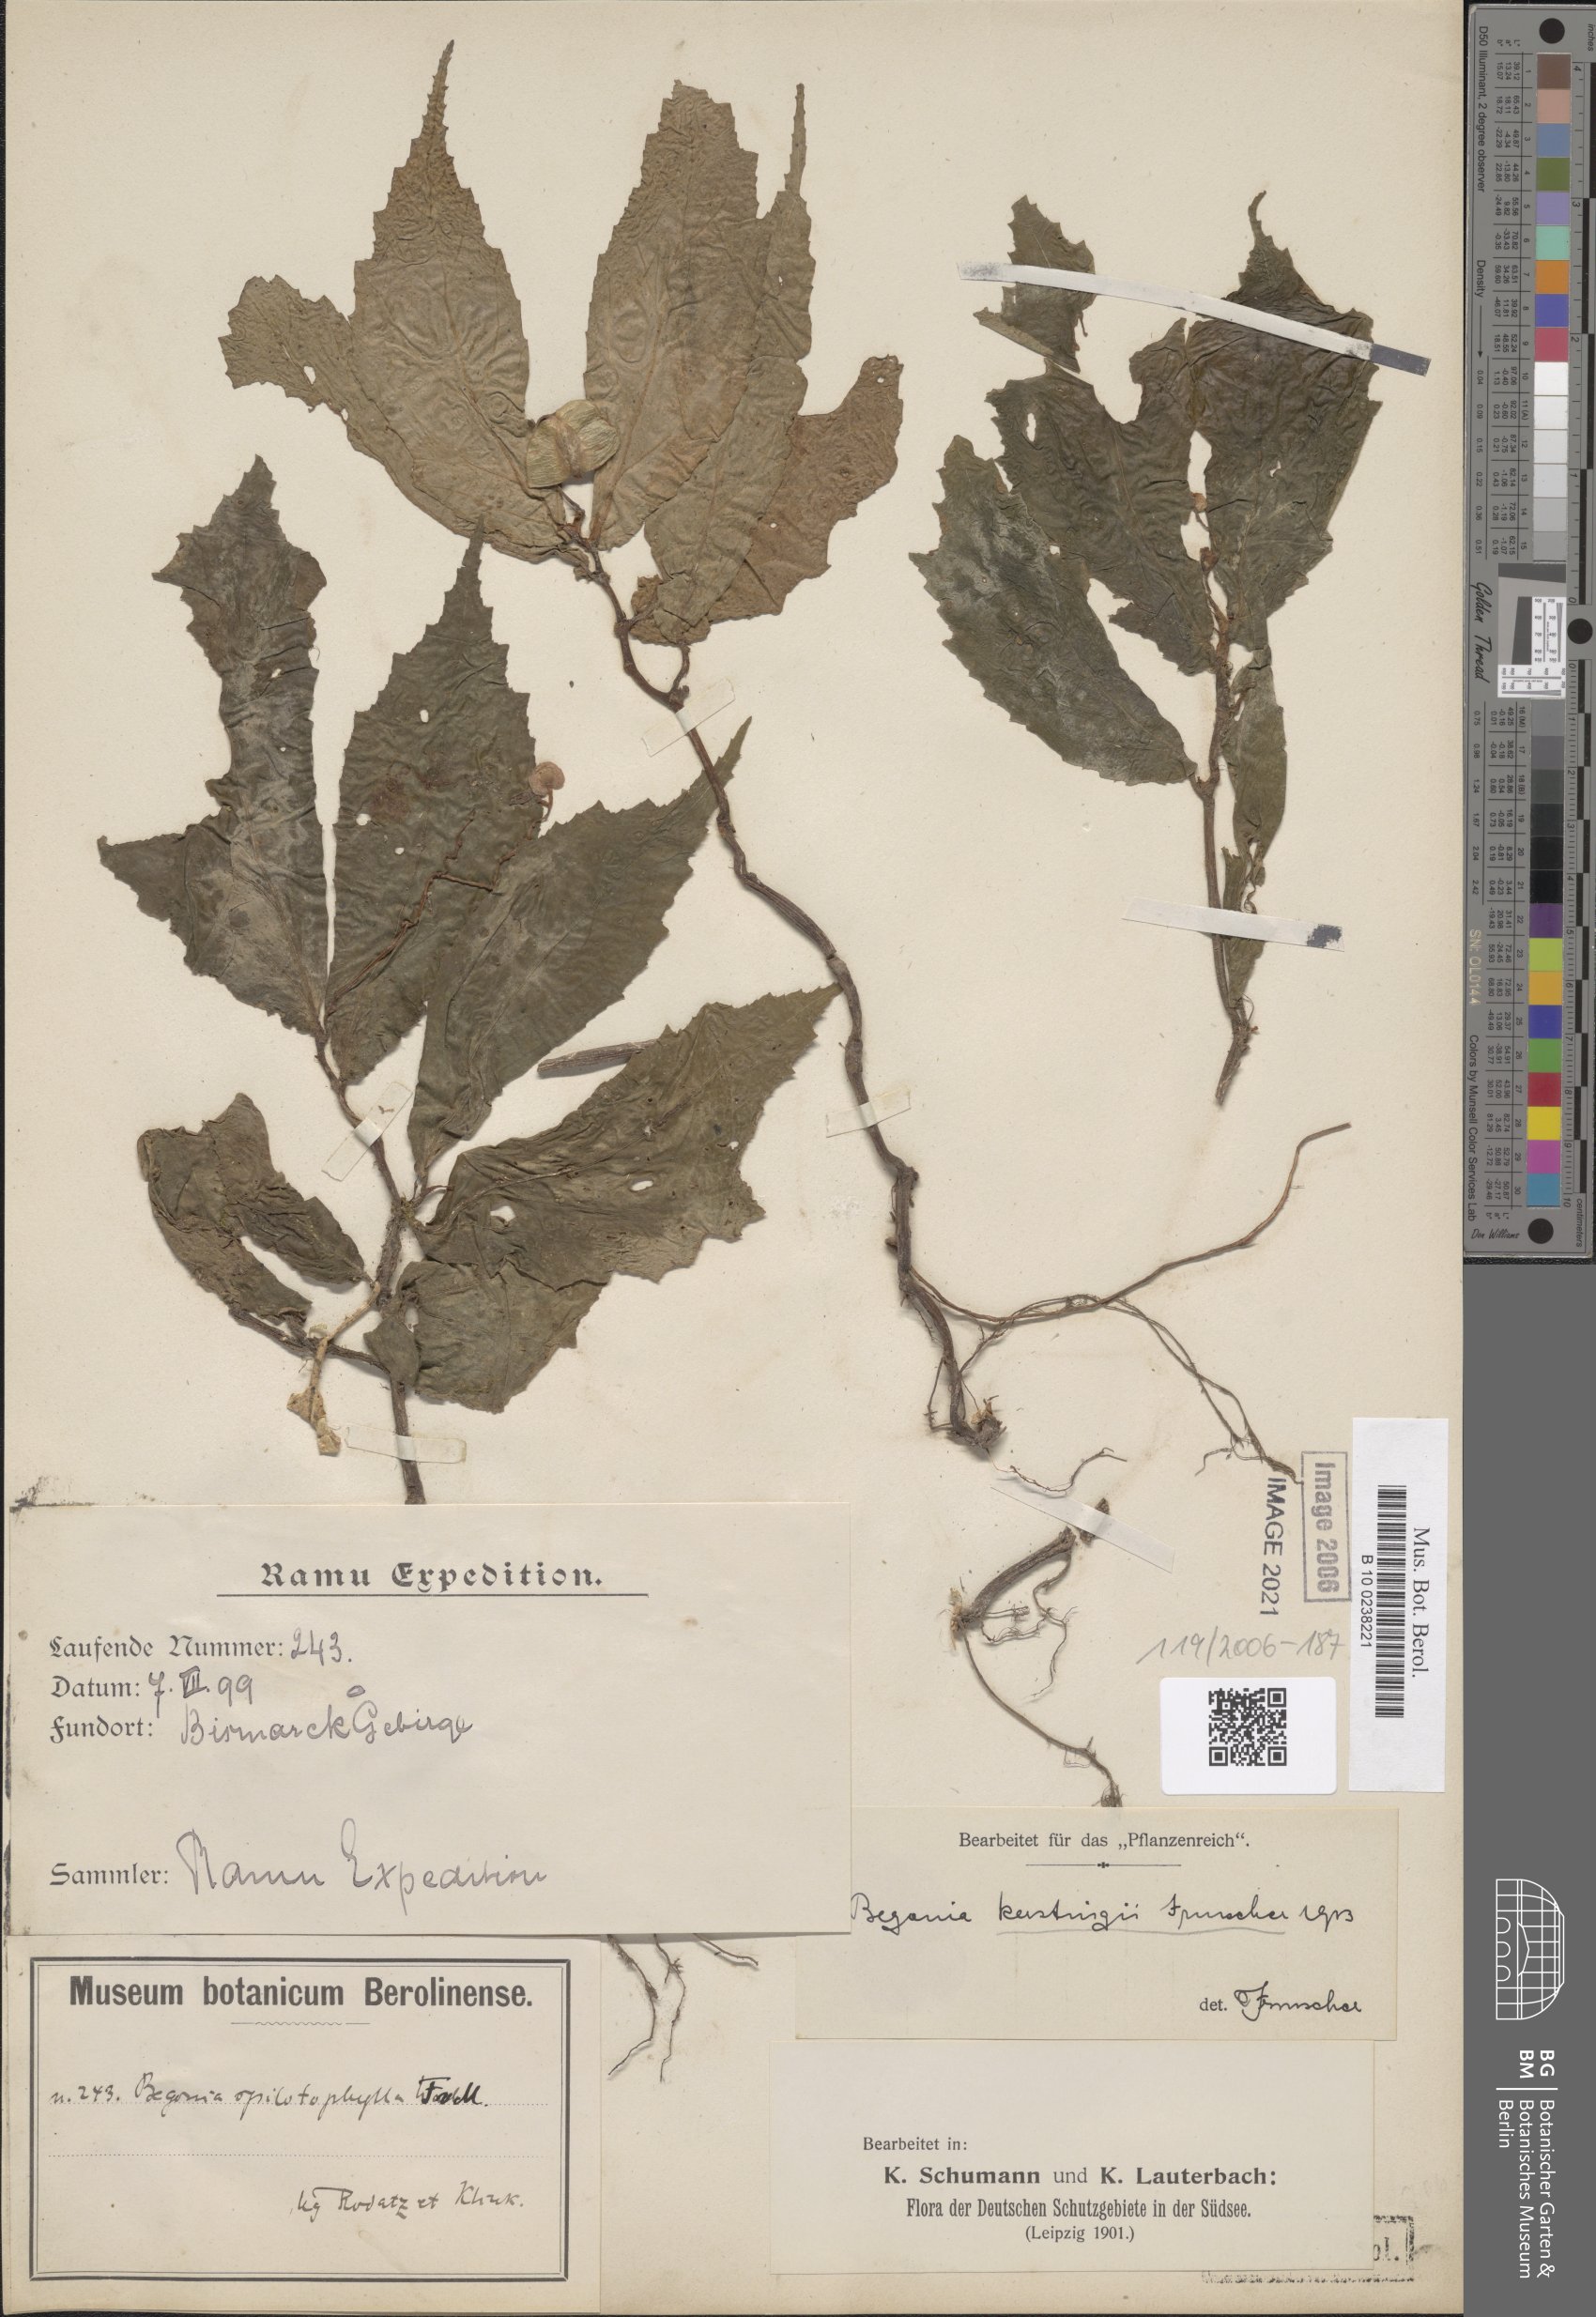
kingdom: Plantae
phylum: Tracheophyta
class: Magnoliopsida
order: Cucurbitales
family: Begoniaceae
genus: Begonia
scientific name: Begonia kerstingii
